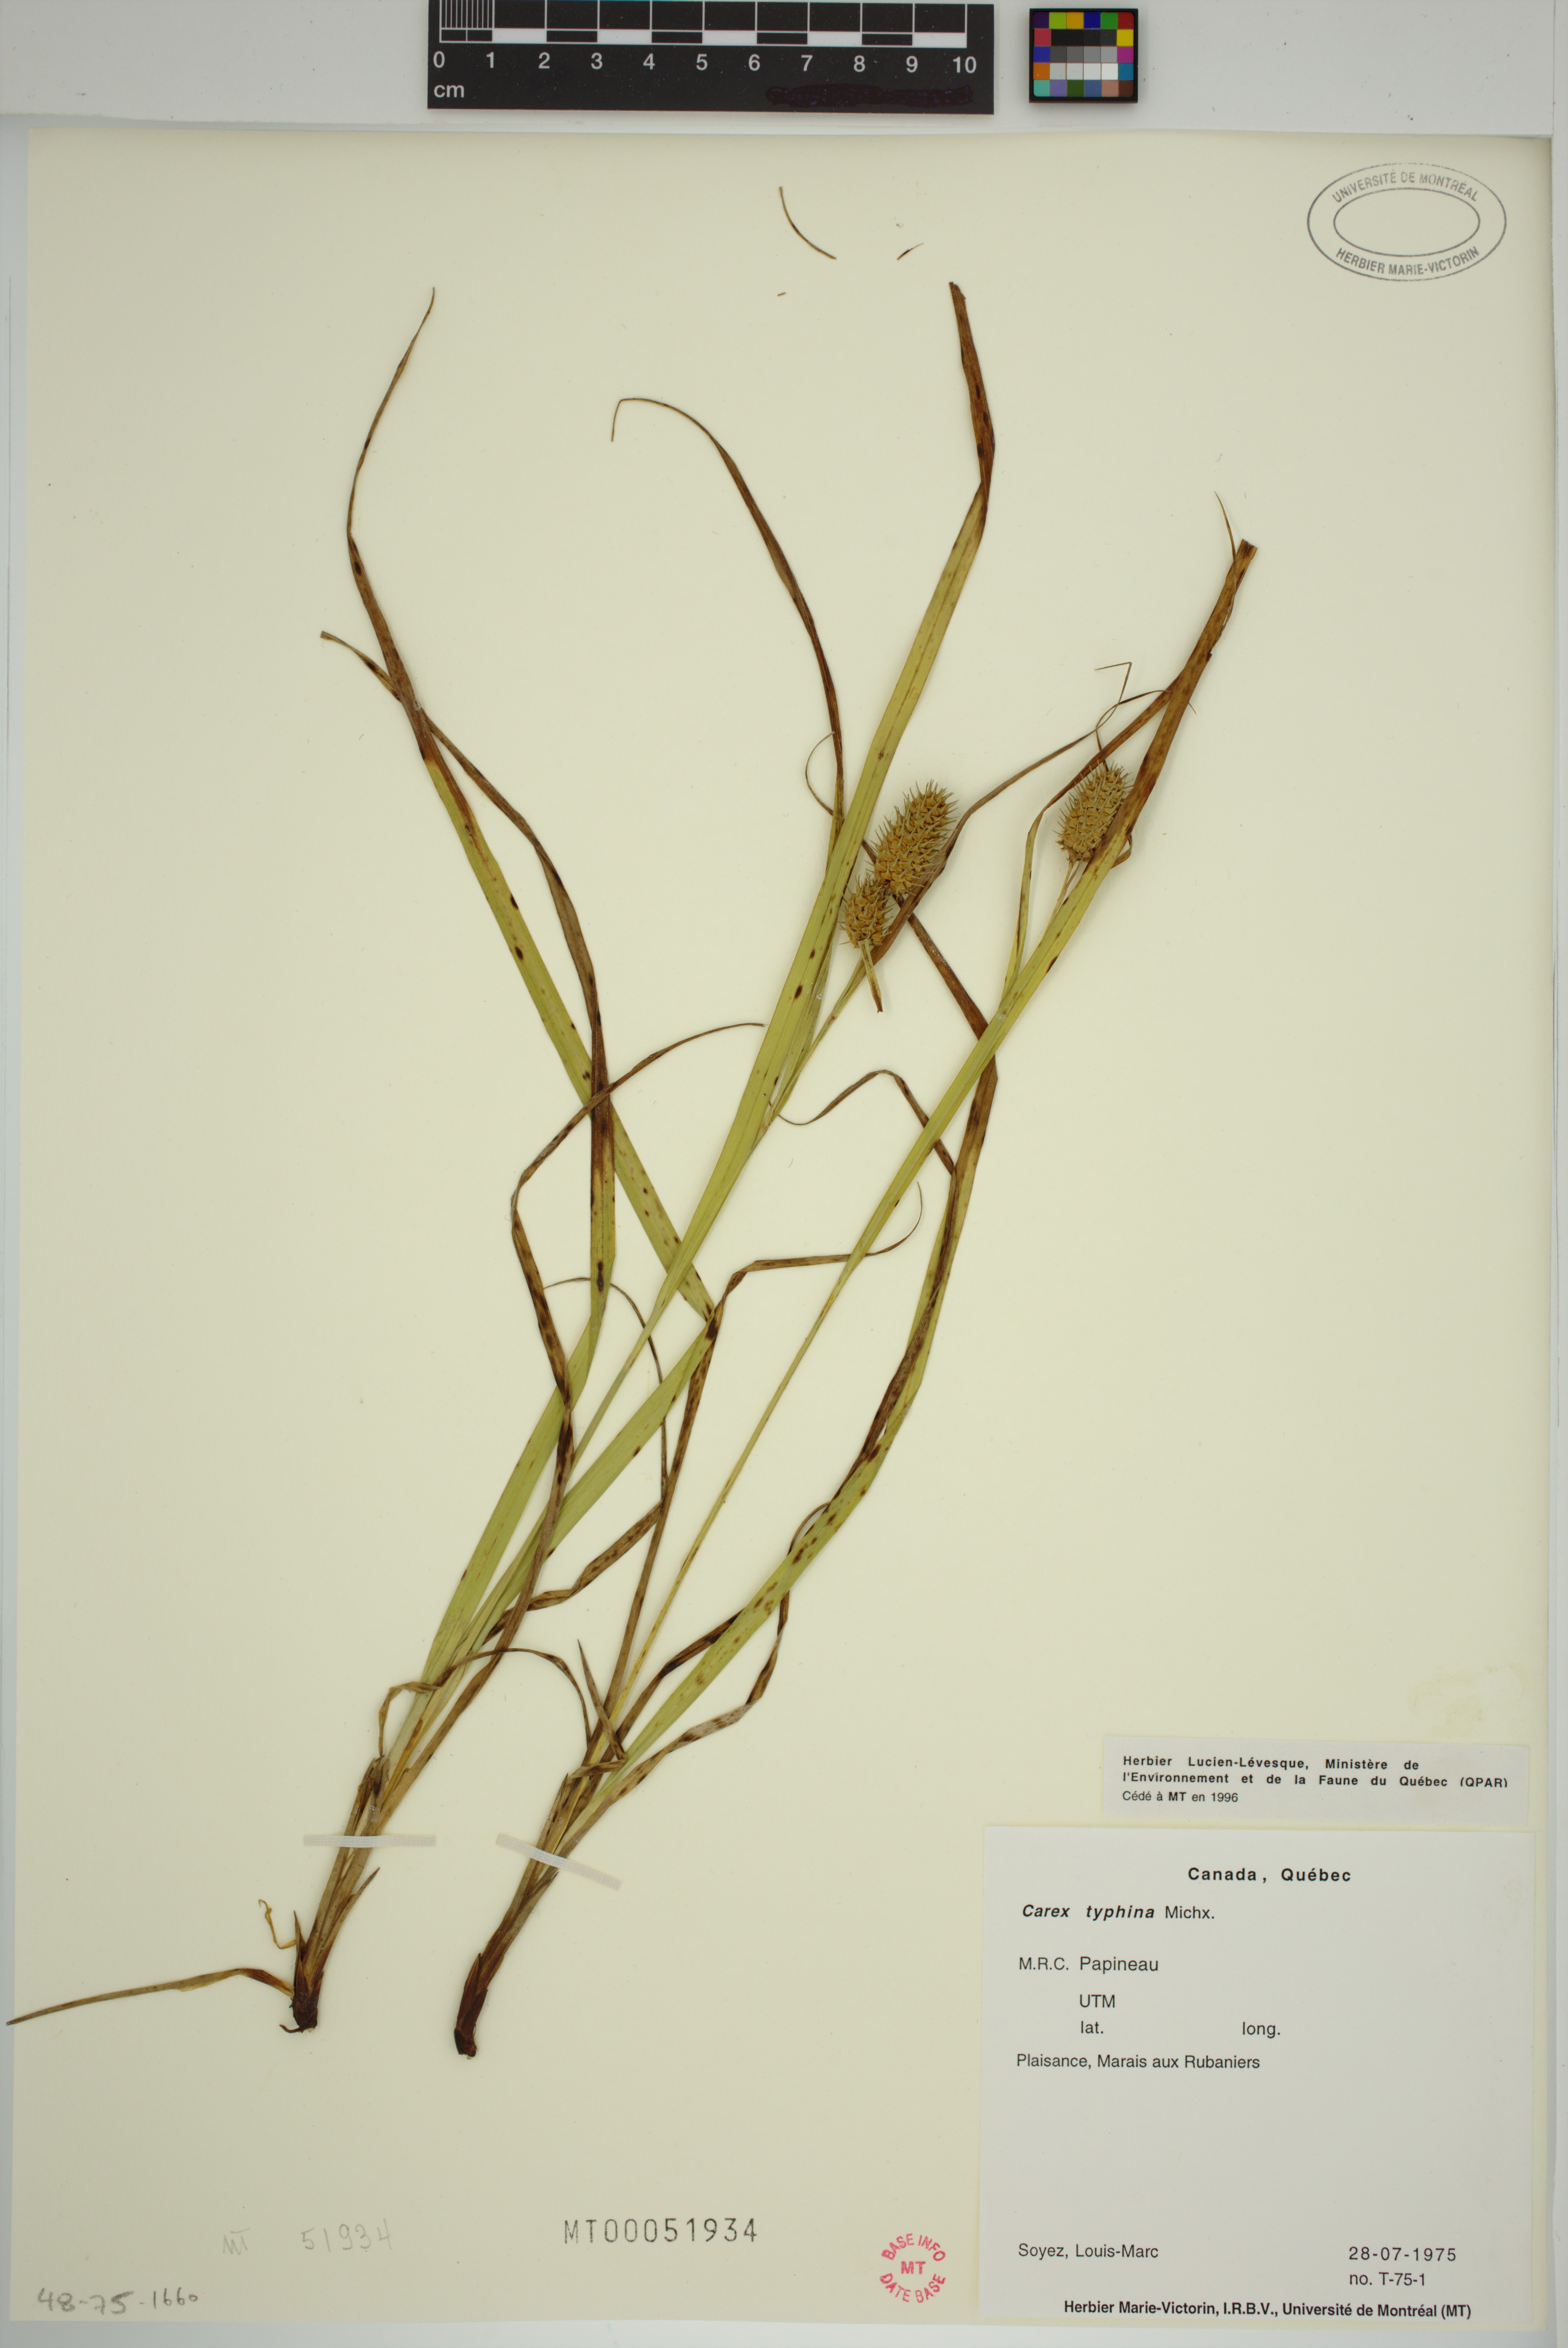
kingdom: Plantae
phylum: Tracheophyta
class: Liliopsida
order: Poales
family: Cyperaceae
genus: Carex
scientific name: Carex typhina
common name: Cattail sedge
